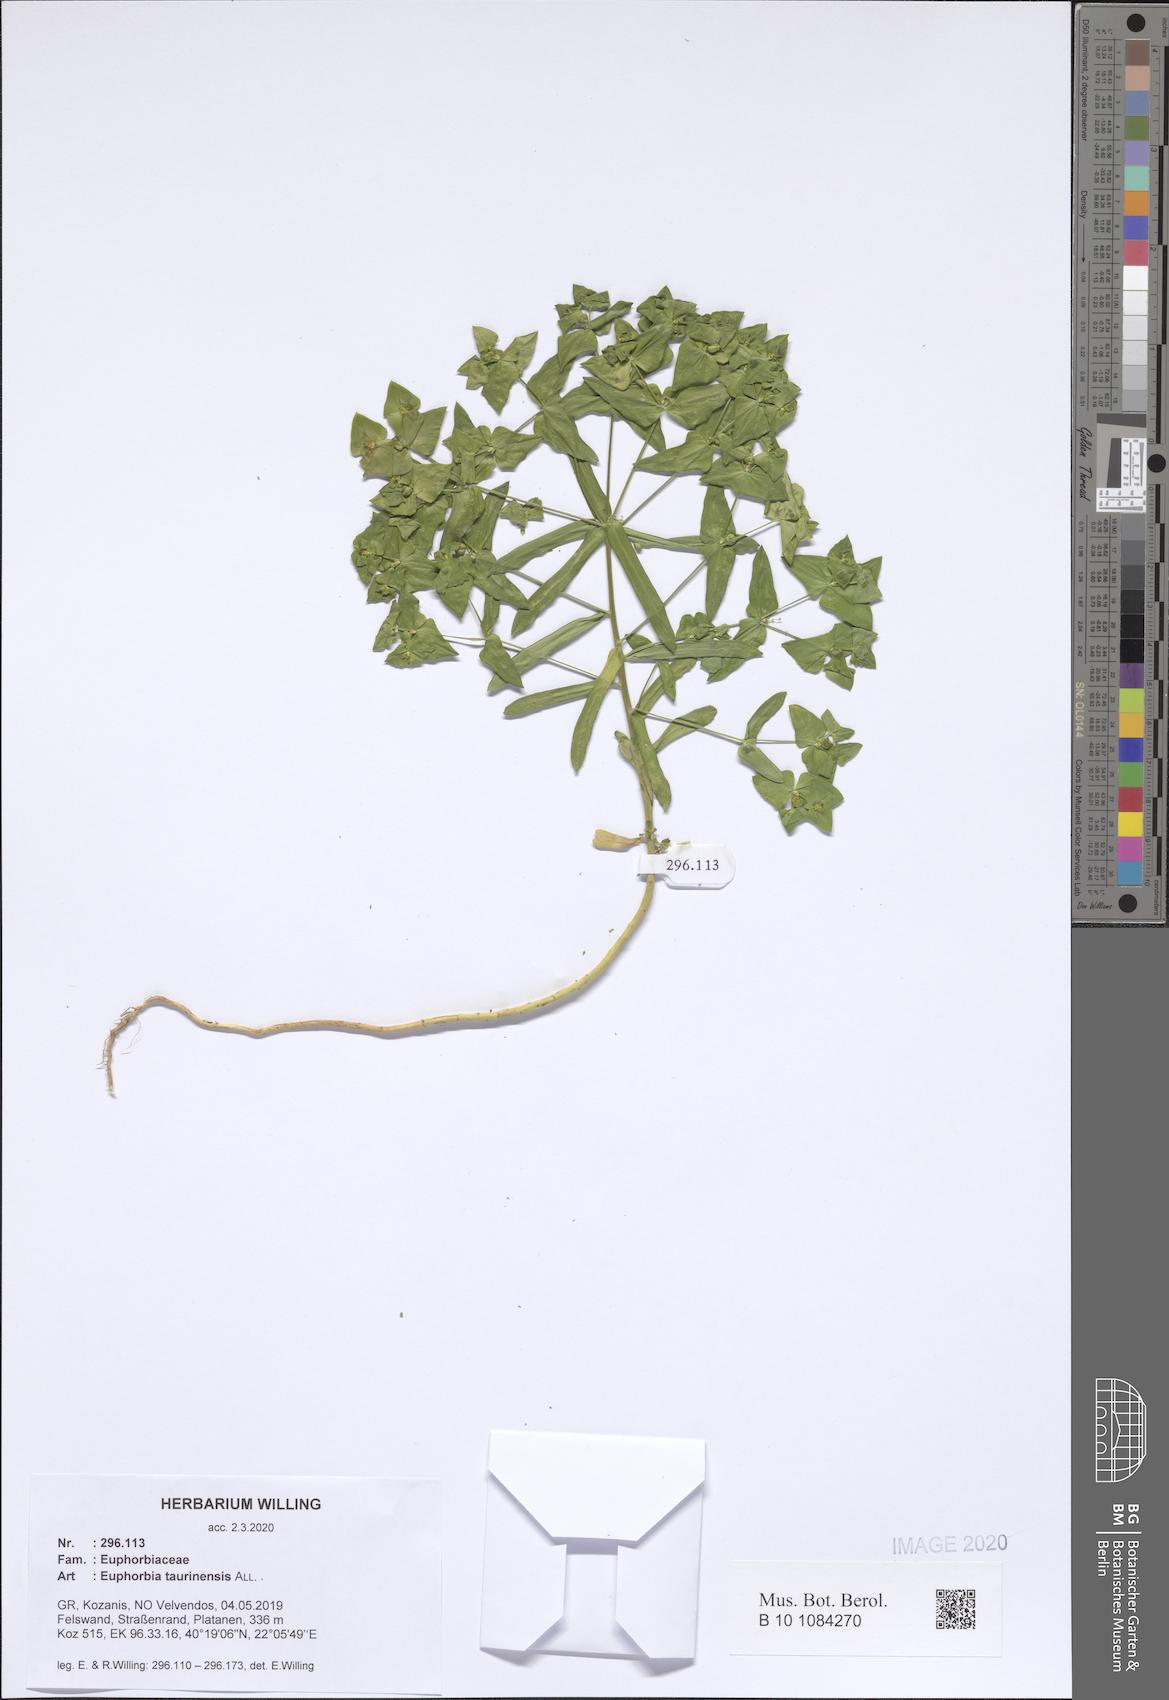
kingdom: Plantae
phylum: Tracheophyta
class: Magnoliopsida
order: Malpighiales
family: Euphorbiaceae
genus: Euphorbia
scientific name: Euphorbia taurinensis
